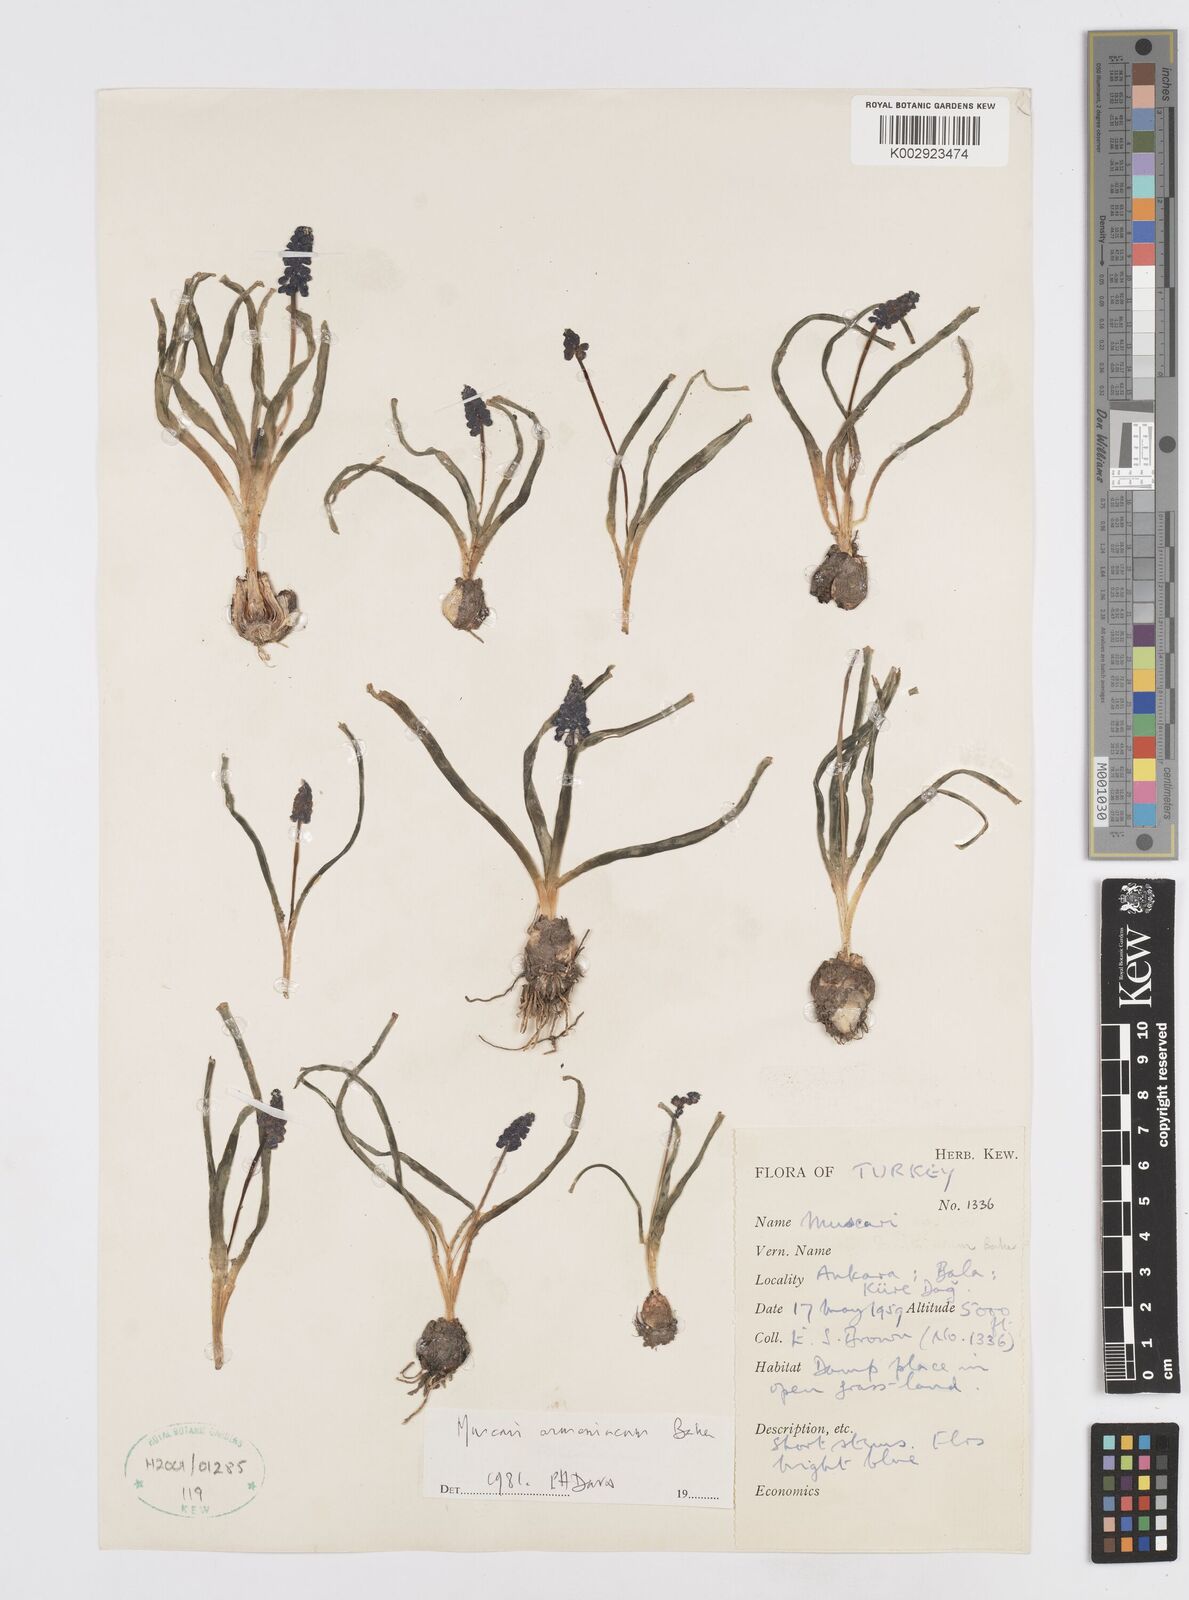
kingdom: Plantae
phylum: Tracheophyta
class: Liliopsida
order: Asparagales
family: Asparagaceae
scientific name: Asparagaceae
